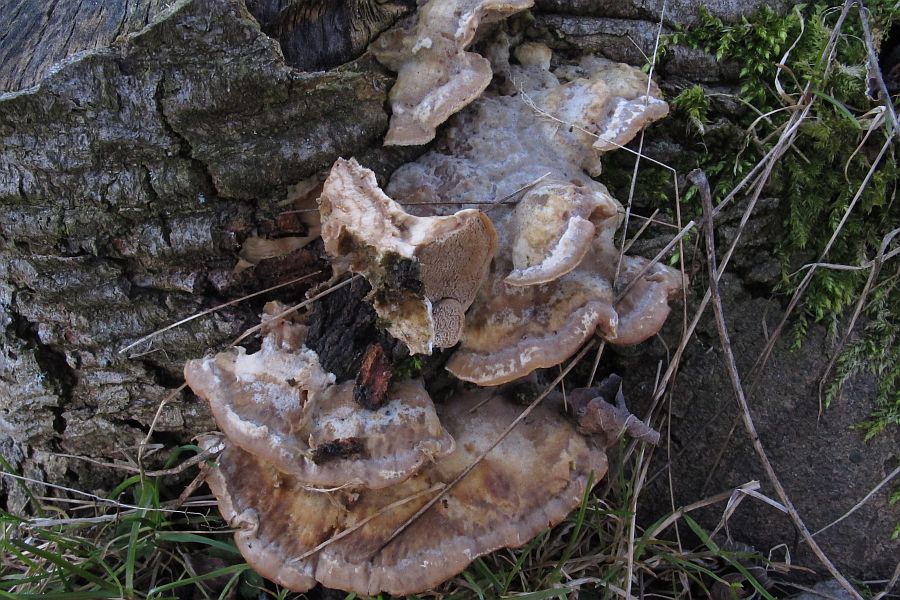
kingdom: Fungi
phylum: Basidiomycota
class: Agaricomycetes
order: Polyporales
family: Phanerochaetaceae
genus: Bjerkandera
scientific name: Bjerkandera fumosa
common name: grågul sodporesvamp
